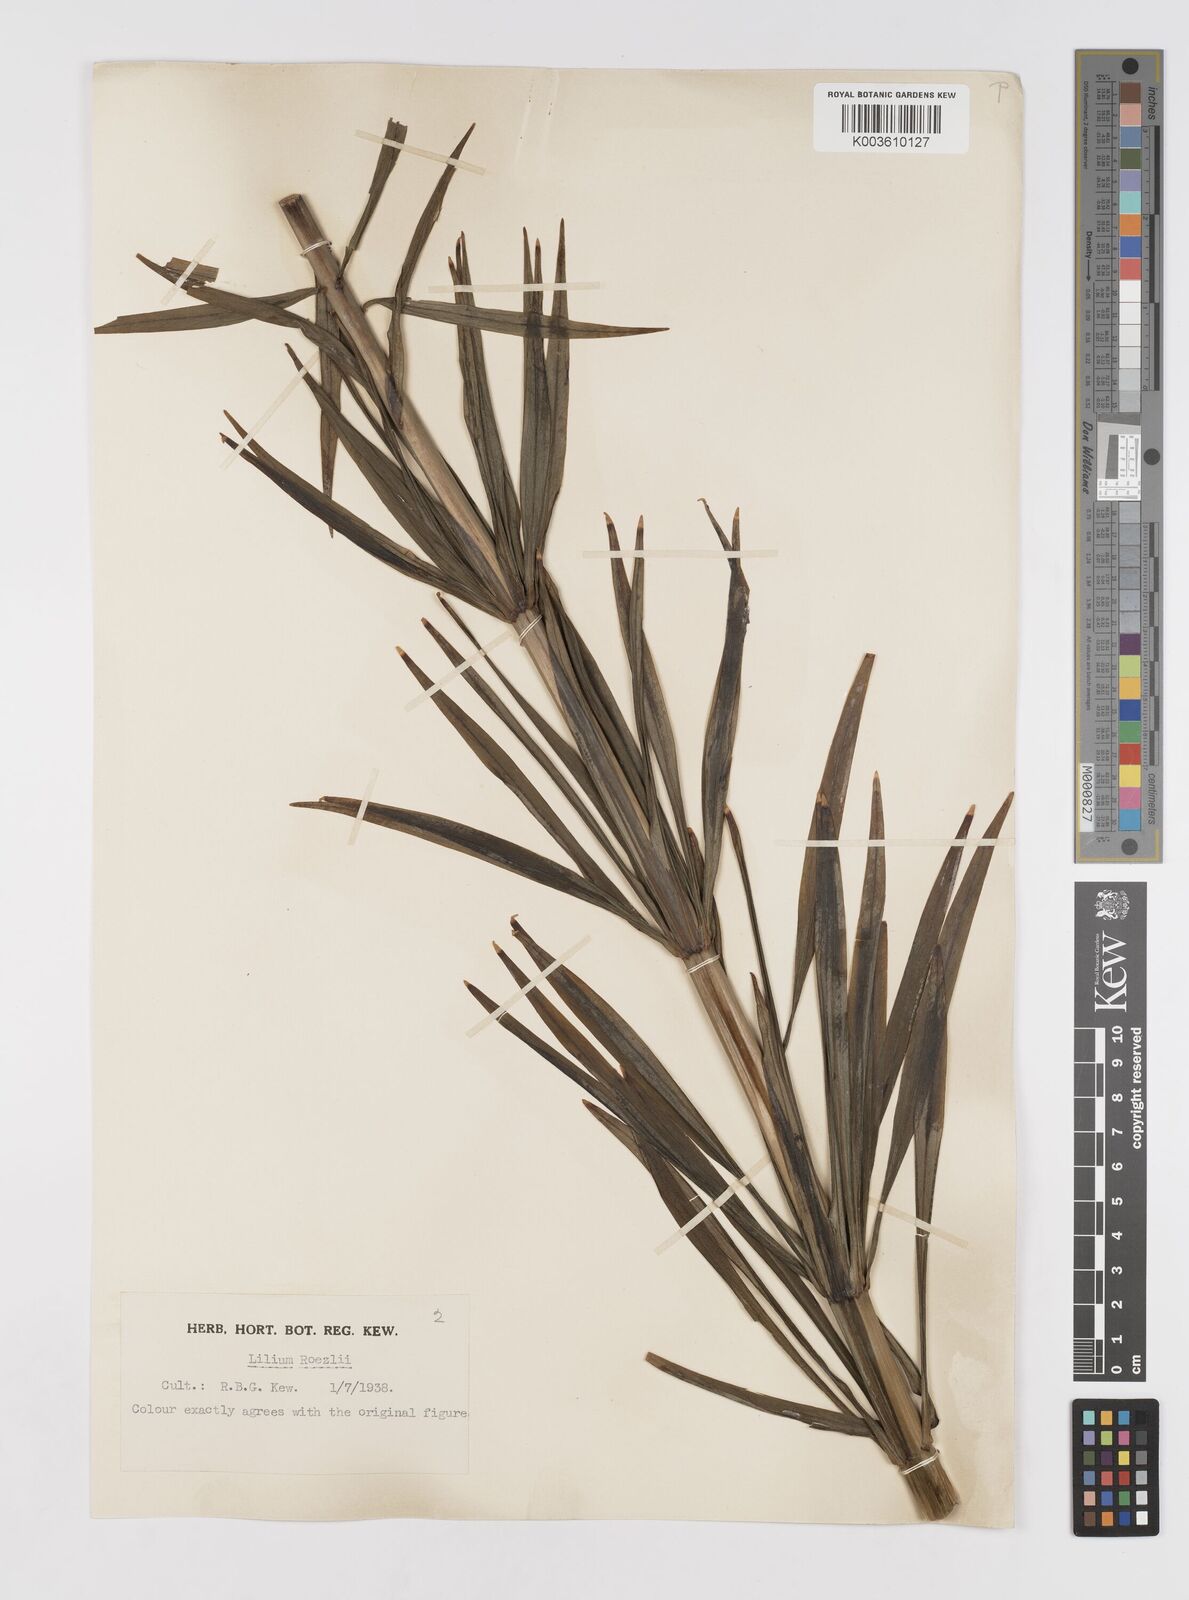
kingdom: Plantae
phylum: Tracheophyta
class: Liliopsida
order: Liliales
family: Liliaceae
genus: Lilium
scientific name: Lilium pardalinum
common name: Panther lily
